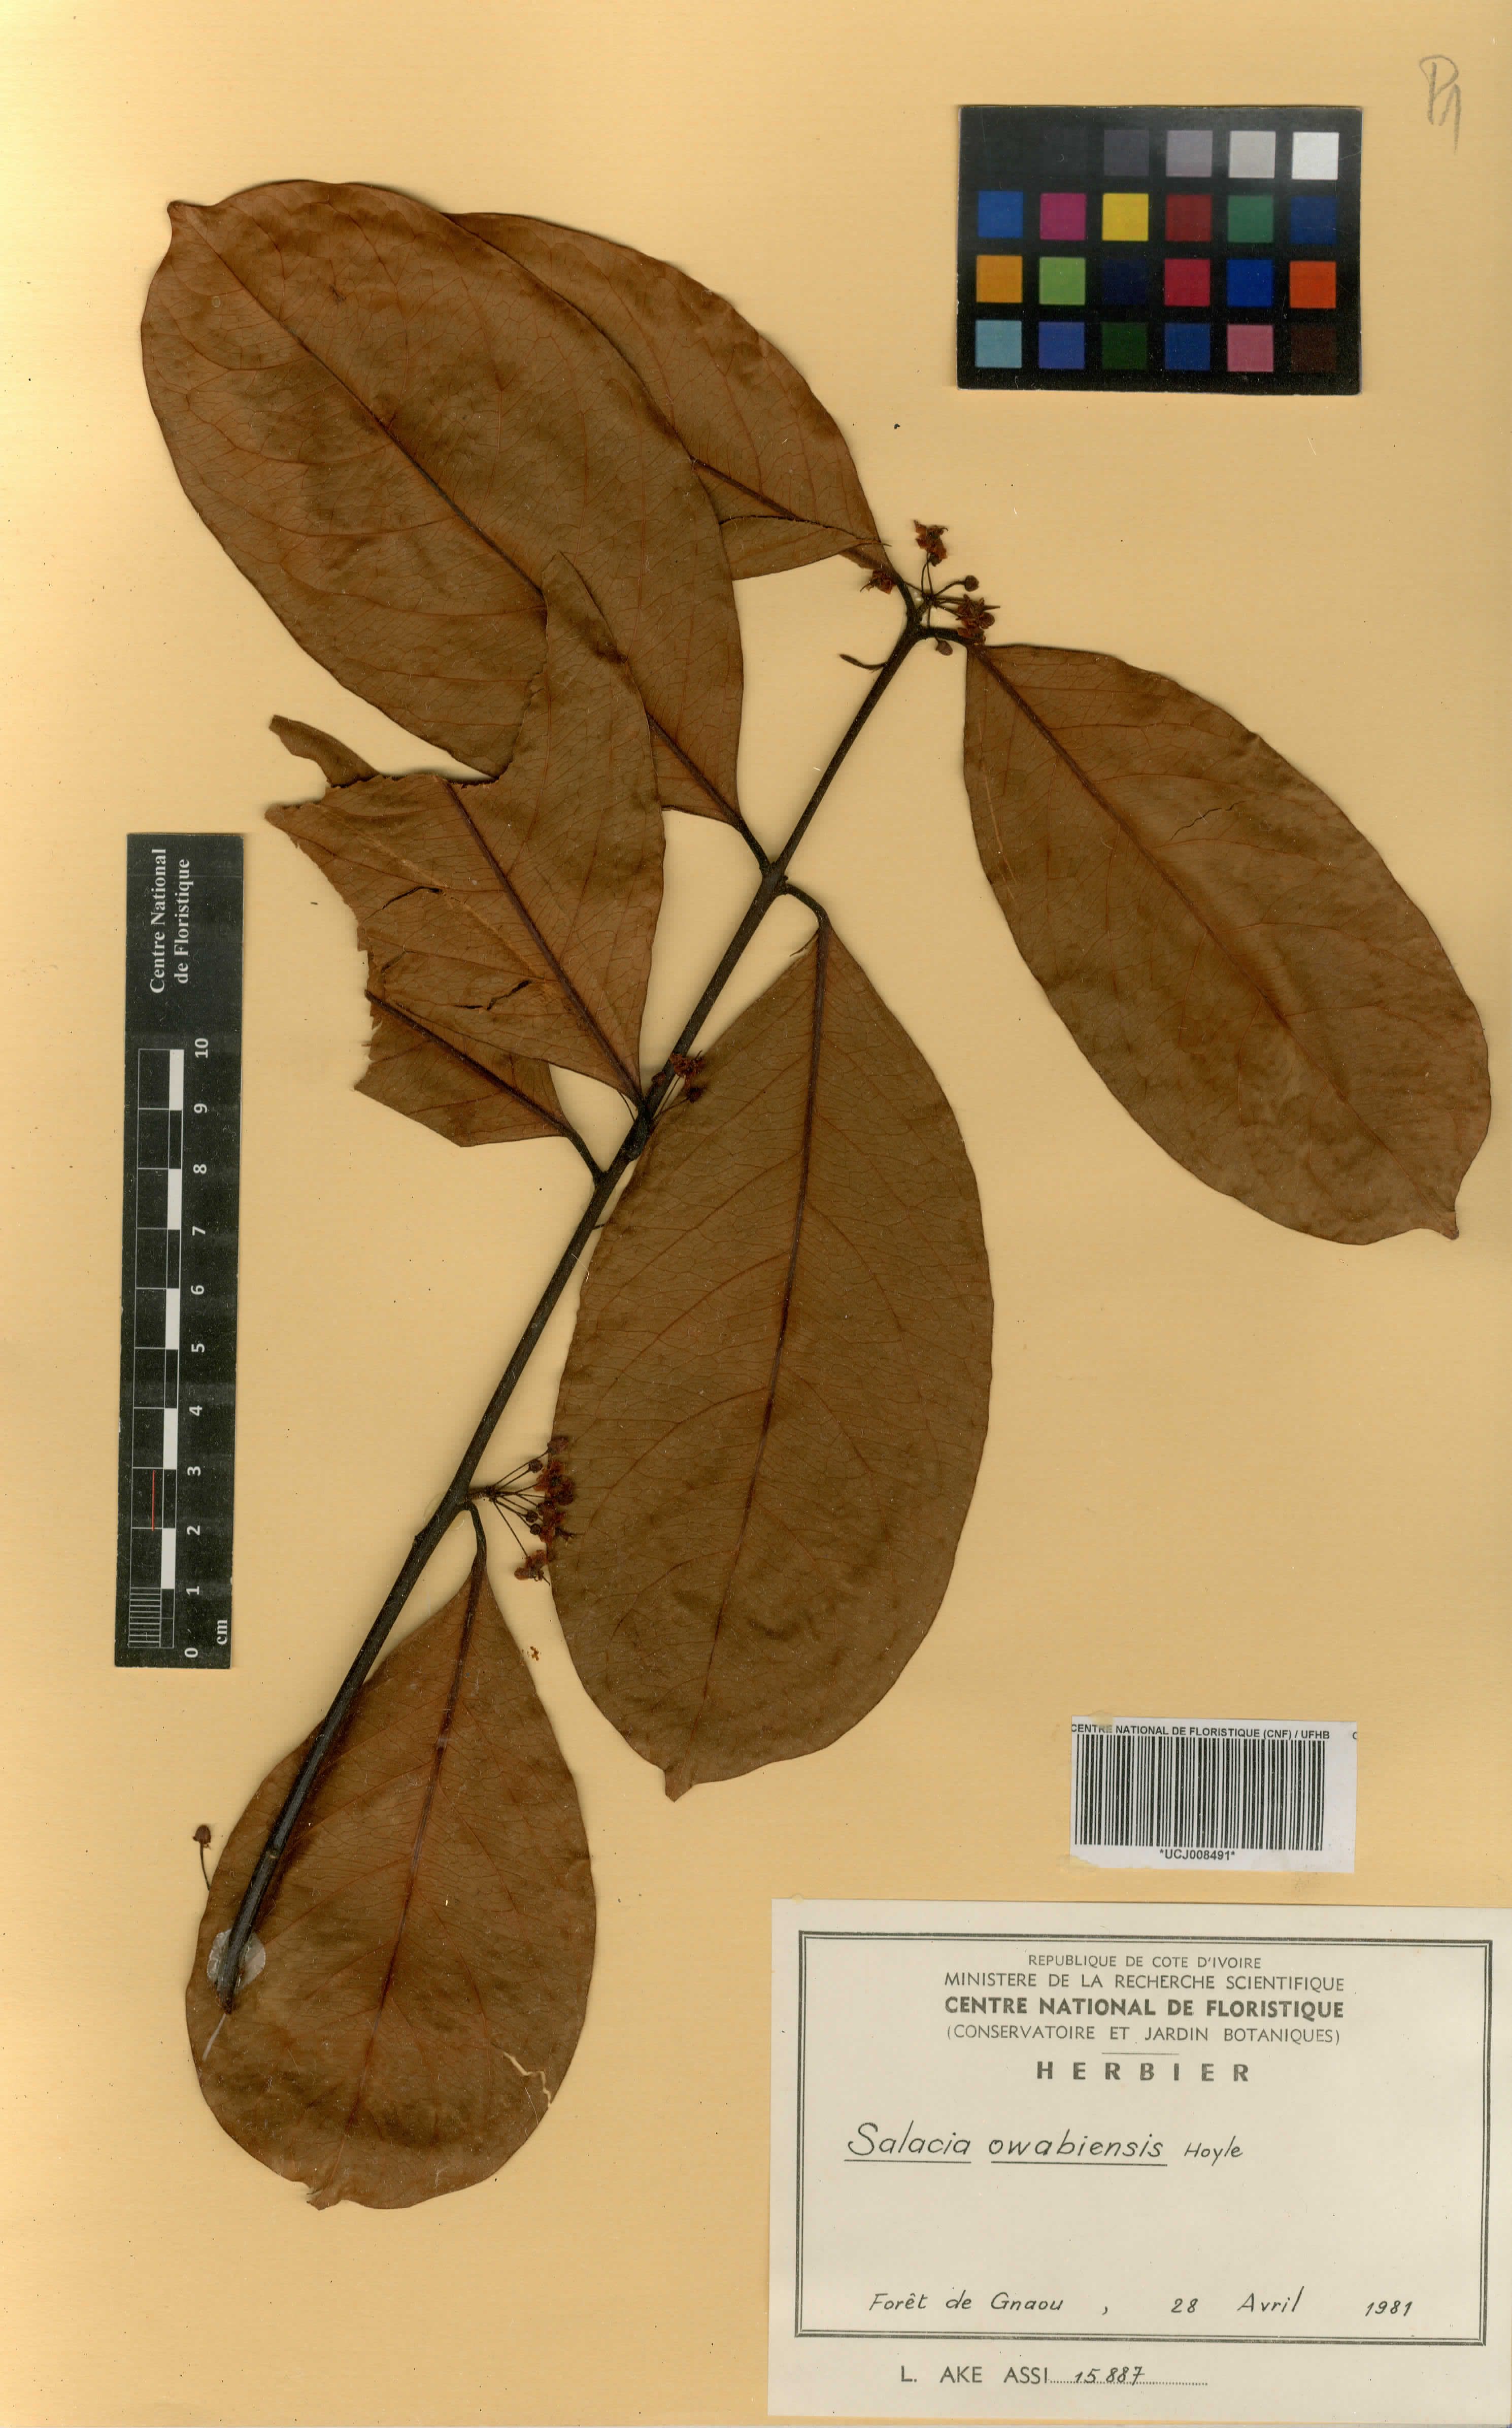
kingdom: Plantae
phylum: Tracheophyta
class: Magnoliopsida
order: Celastrales
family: Celastraceae
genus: Salacia
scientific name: Salacia owabiensis
